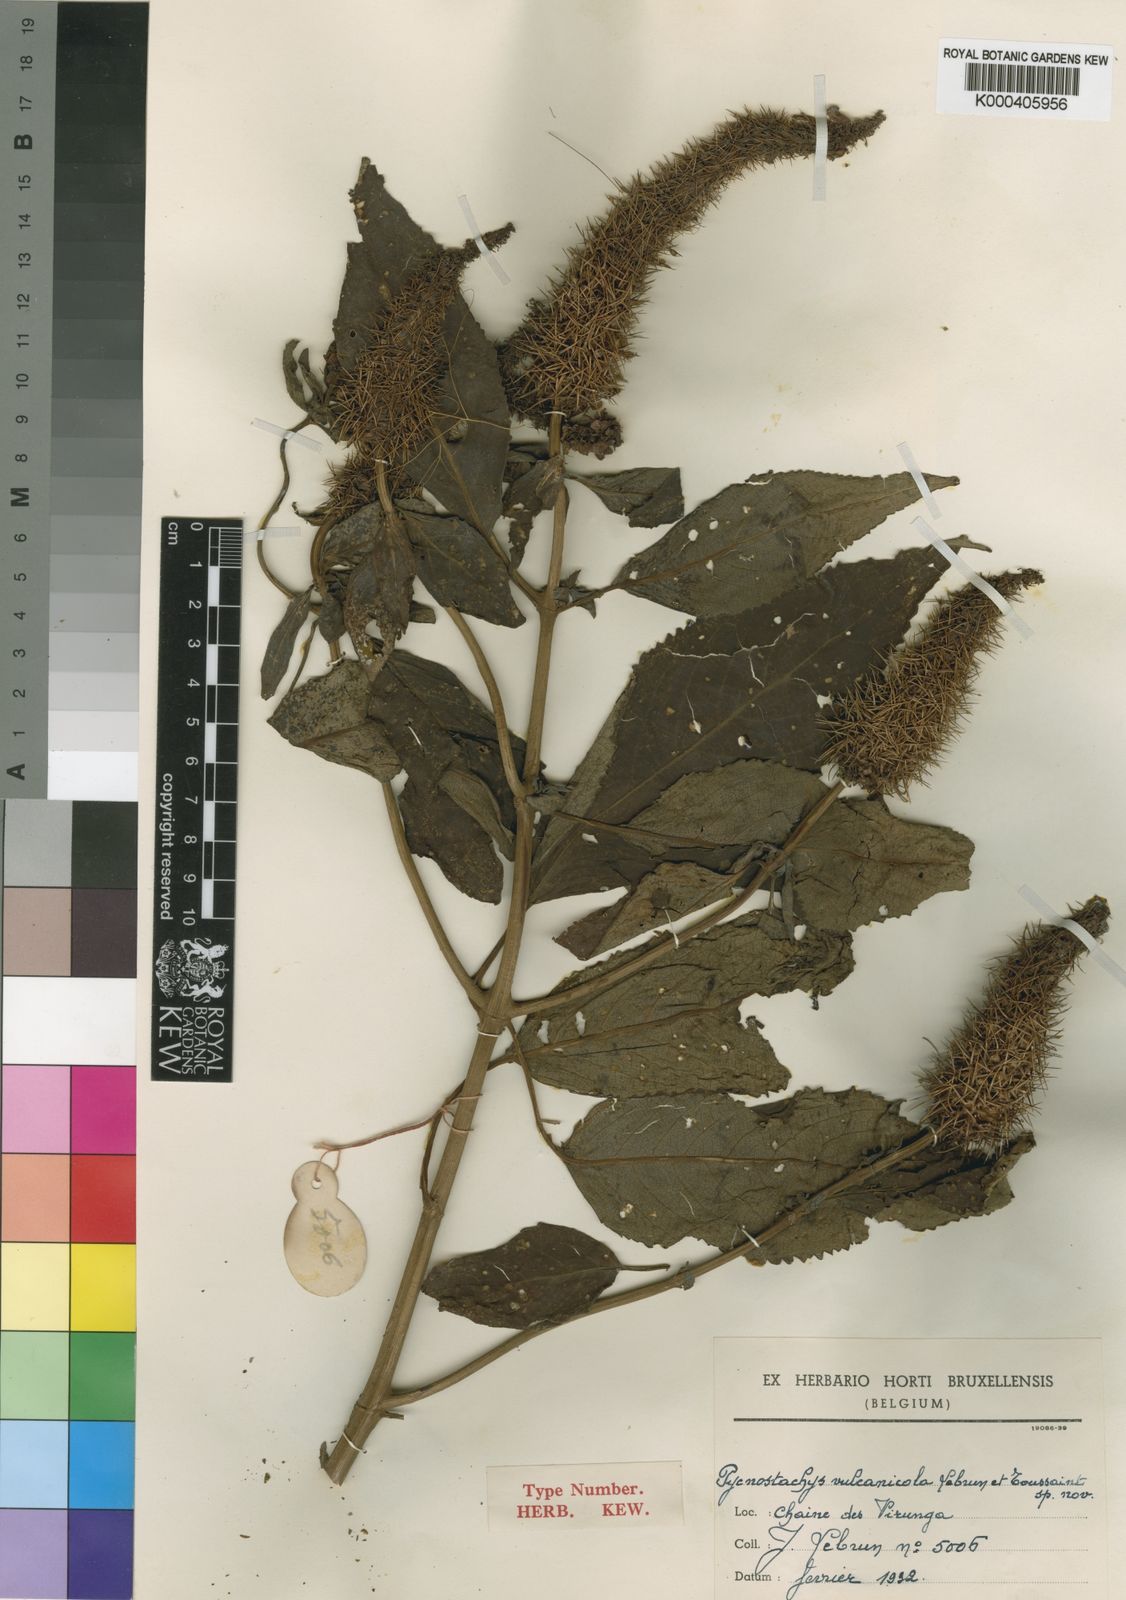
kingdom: Plantae
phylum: Tracheophyta
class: Magnoliopsida
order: Lamiales
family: Lamiaceae
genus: Coleus
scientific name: Coleus goetzenii
